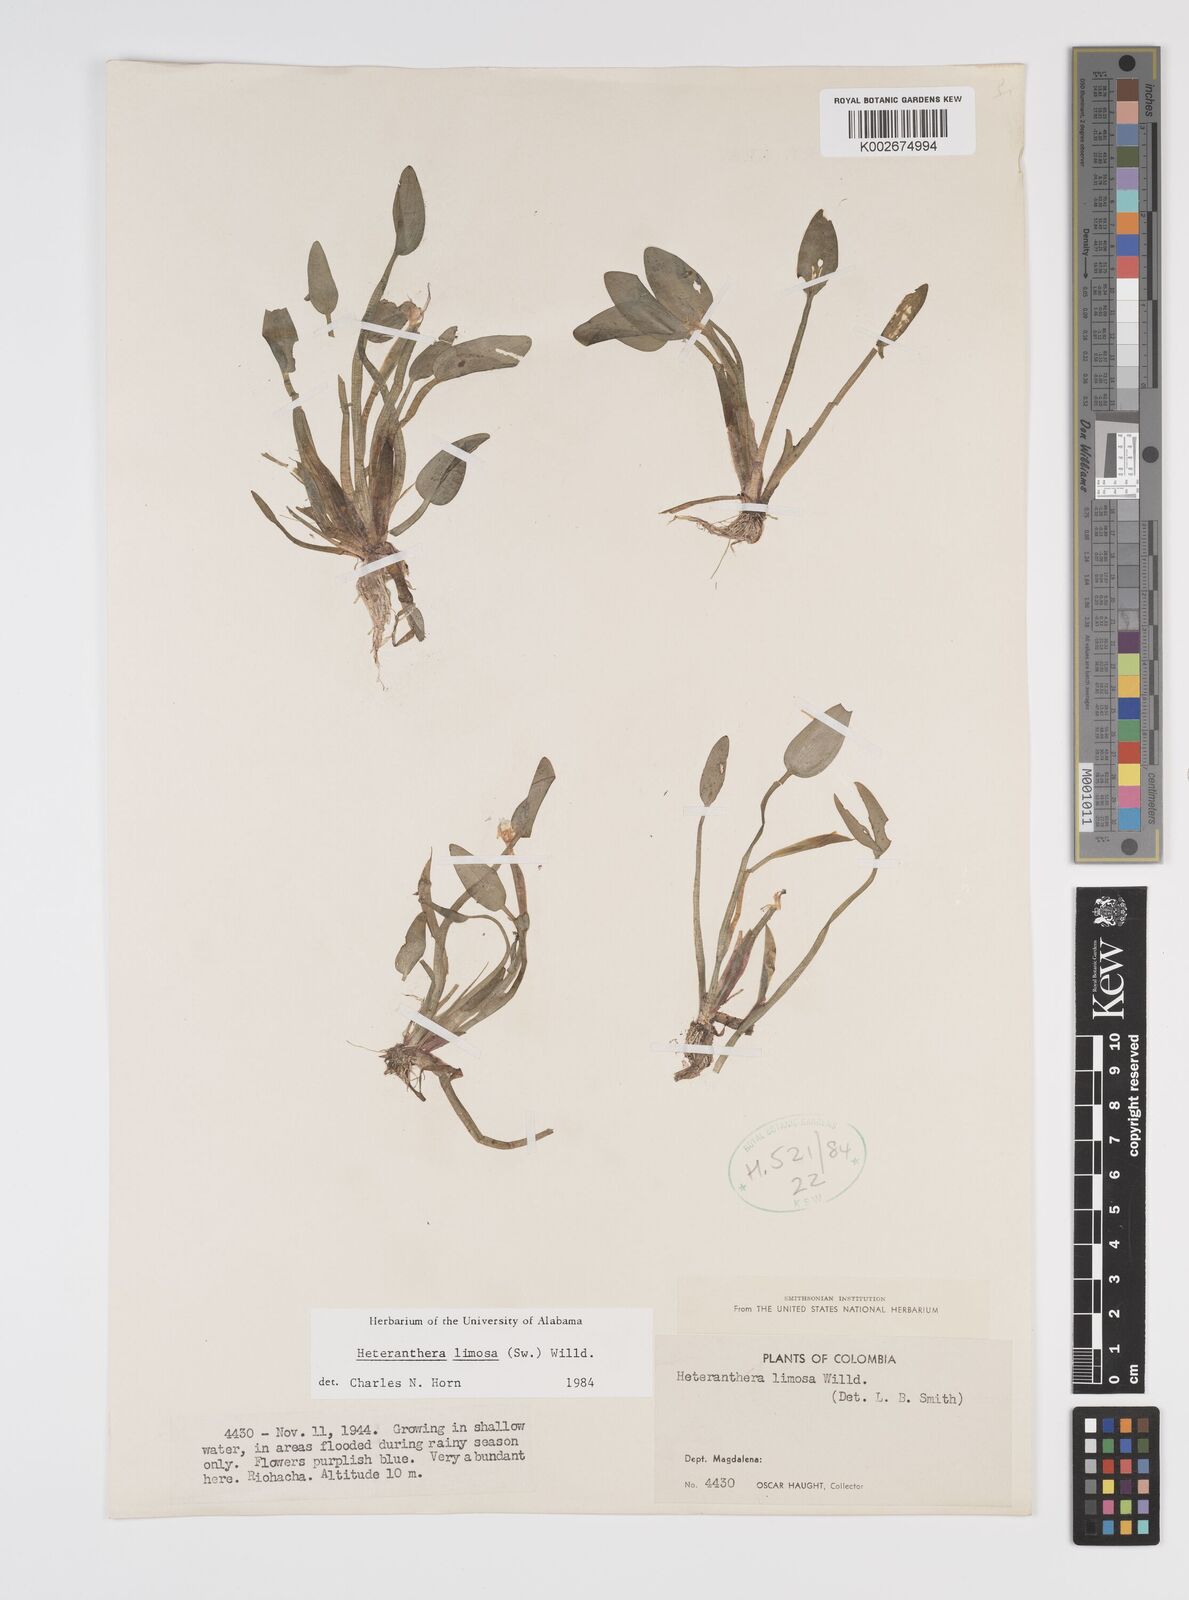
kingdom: Plantae
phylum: Tracheophyta
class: Liliopsida
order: Commelinales
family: Pontederiaceae
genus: Heteranthera
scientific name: Heteranthera limosa
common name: Blue mud-plantain
